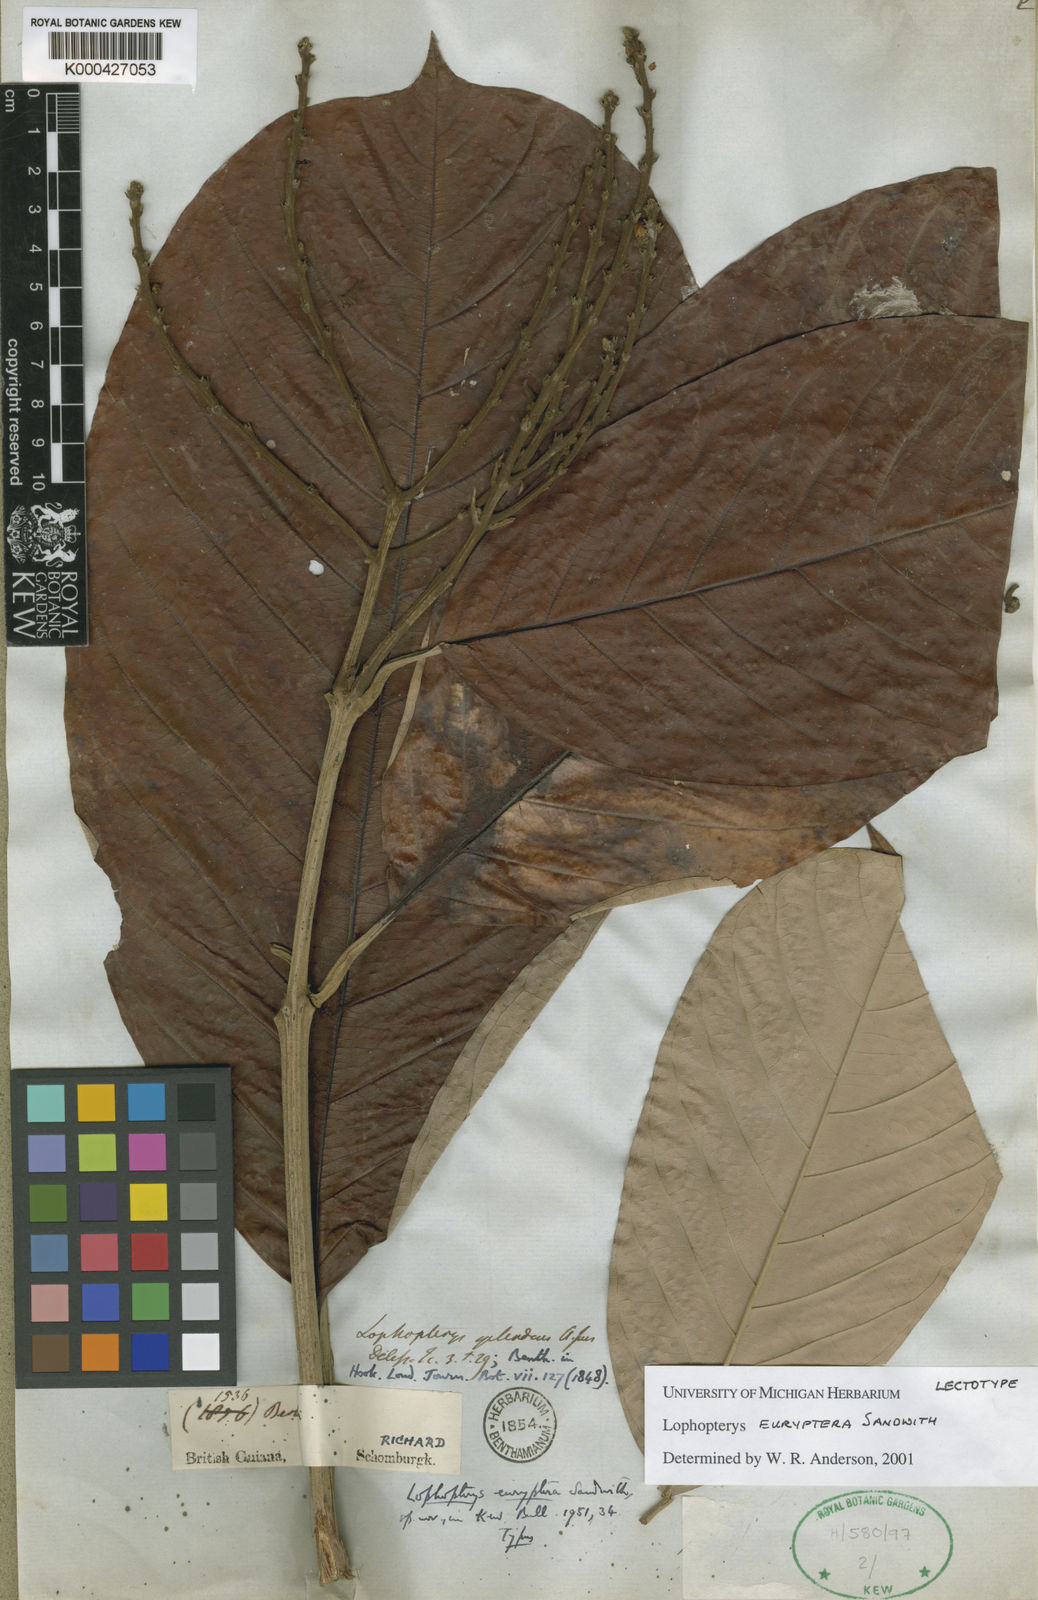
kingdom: Plantae
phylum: Tracheophyta
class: Magnoliopsida
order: Malpighiales
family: Malpighiaceae
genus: Lophopterys
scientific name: Lophopterys euryptera
